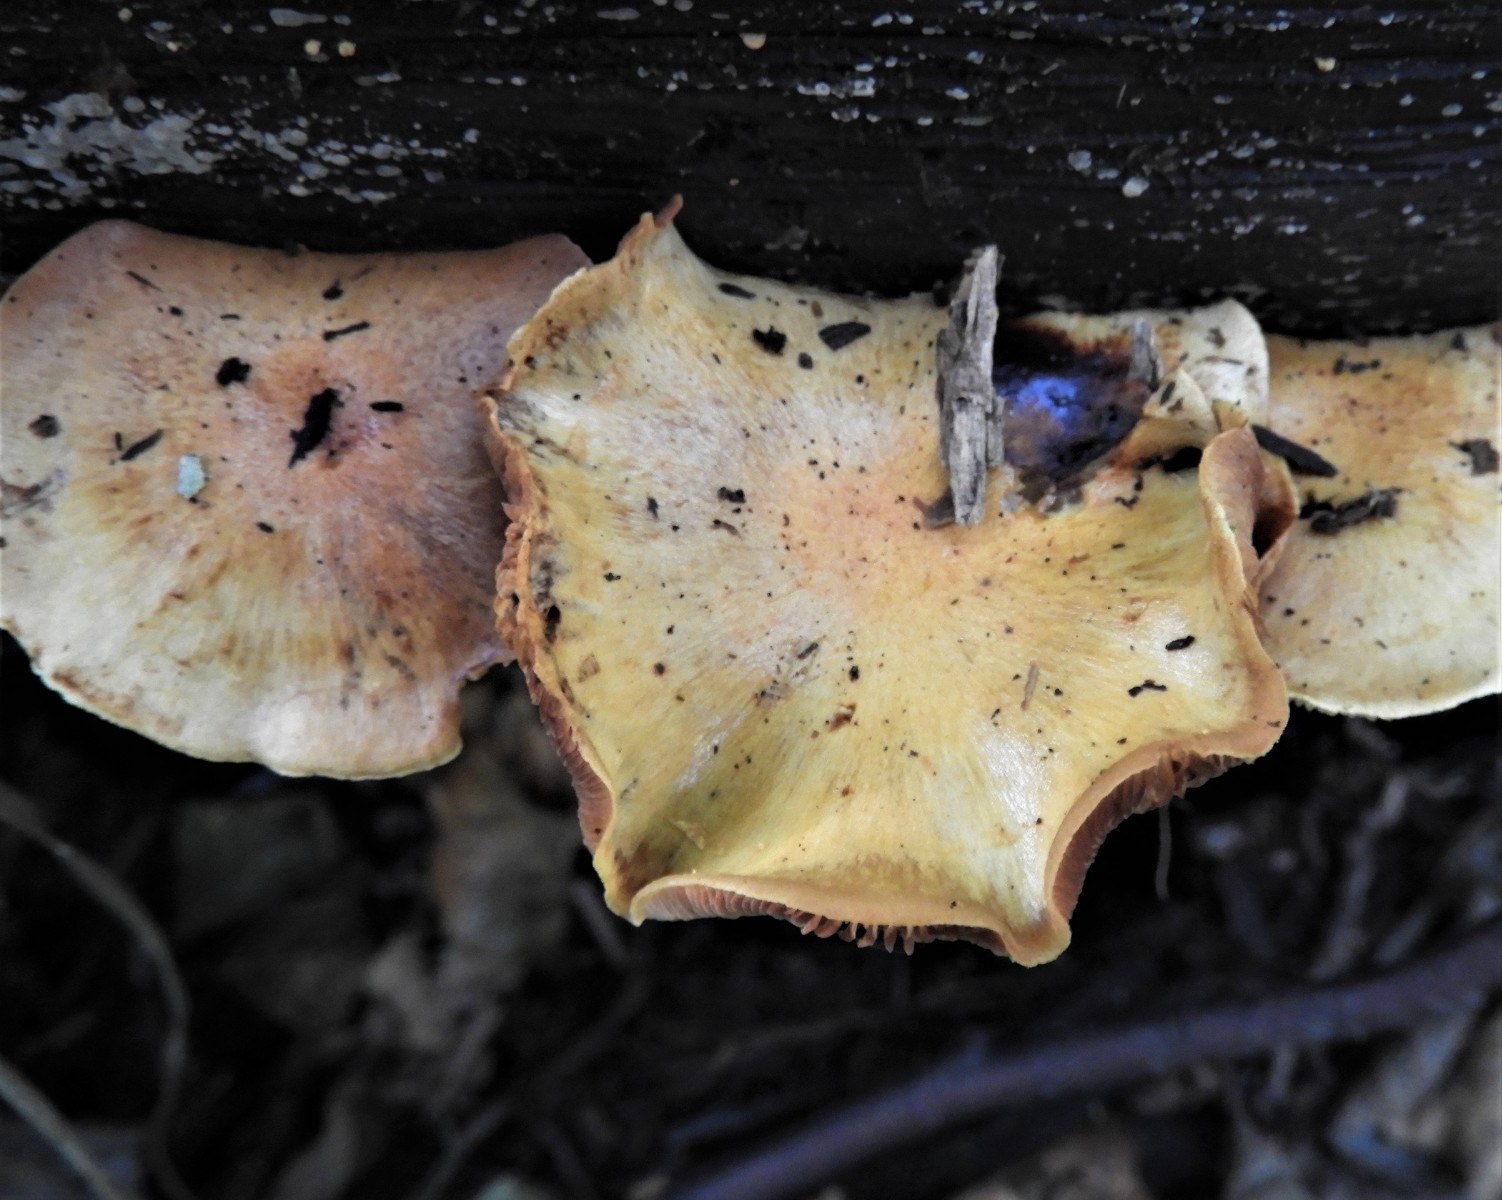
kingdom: Fungi
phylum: Basidiomycota
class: Agaricomycetes
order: Agaricales
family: Strophariaceae
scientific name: Strophariaceae
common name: bredbladfamilien
